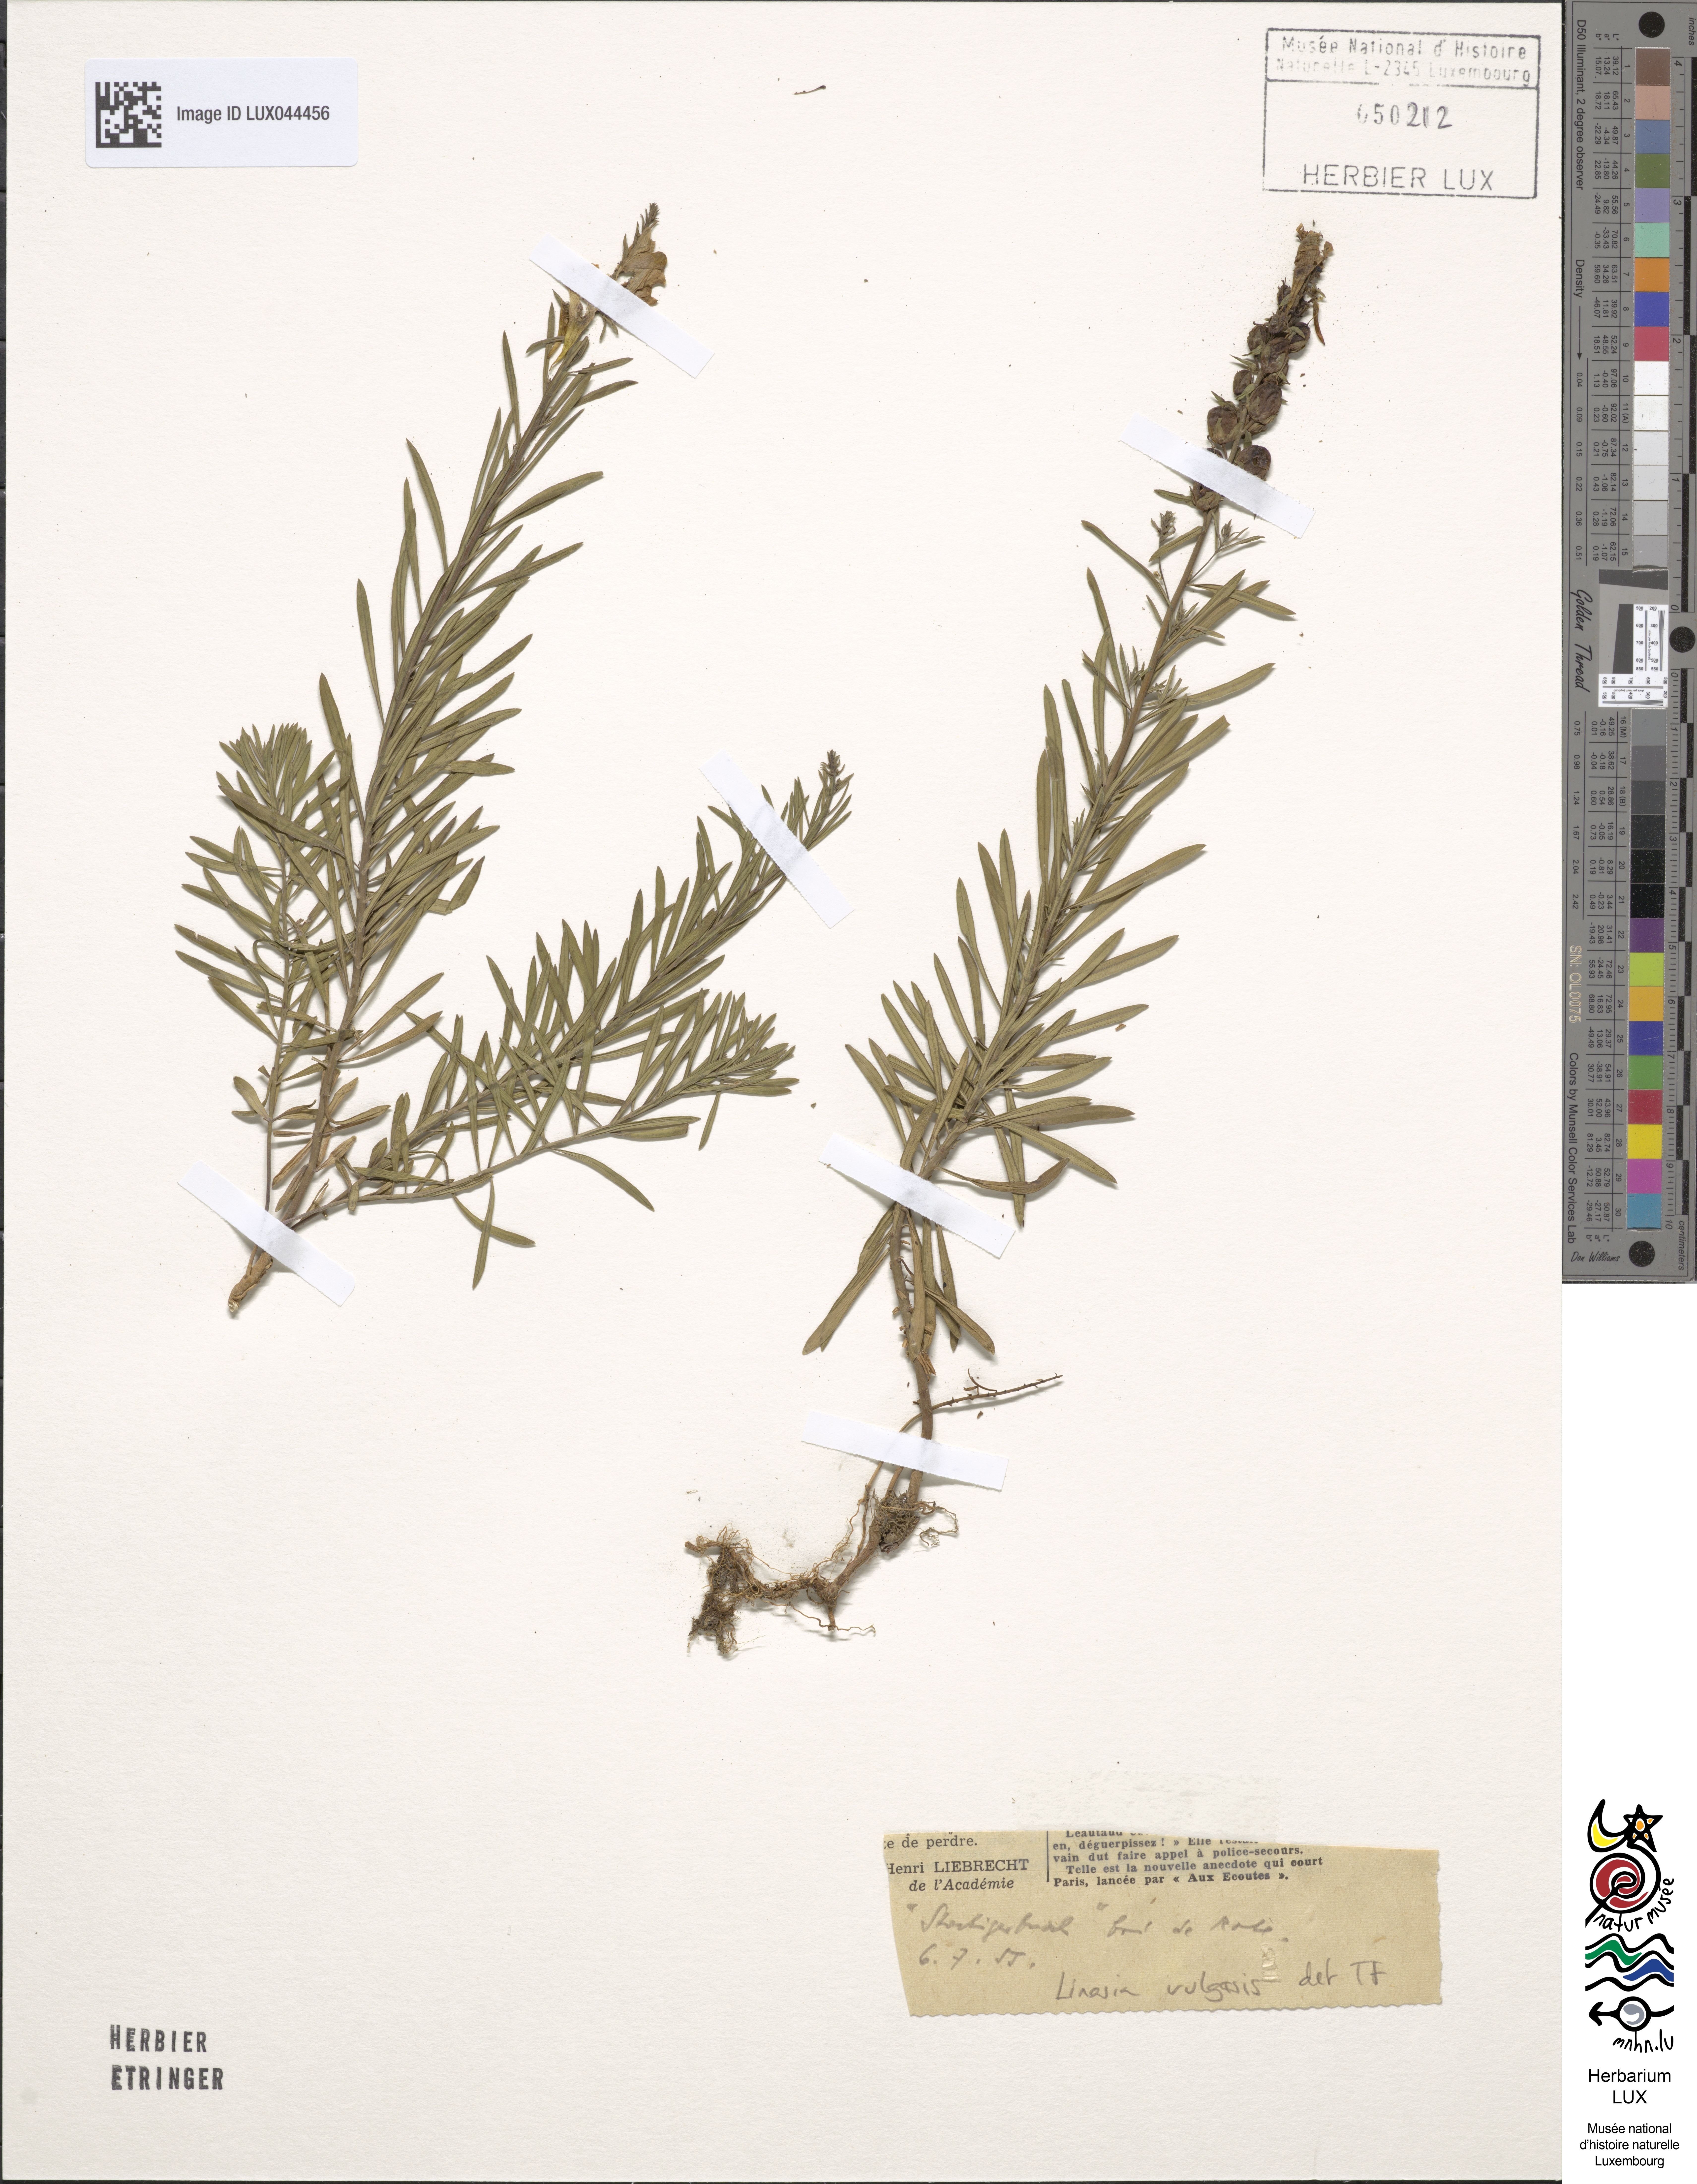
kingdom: Plantae
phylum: Tracheophyta
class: Magnoliopsida
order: Lamiales
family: Plantaginaceae
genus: Linaria
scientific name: Linaria vulgaris
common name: Butter and eggs
